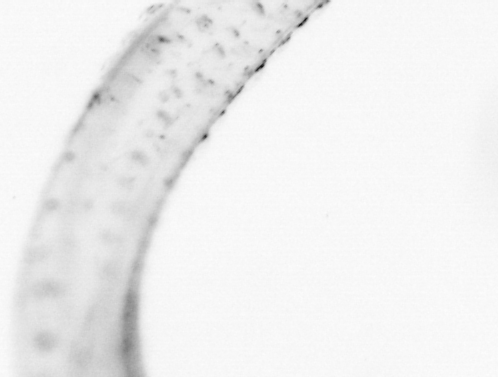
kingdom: Animalia
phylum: Chaetognatha
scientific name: Chaetognatha
